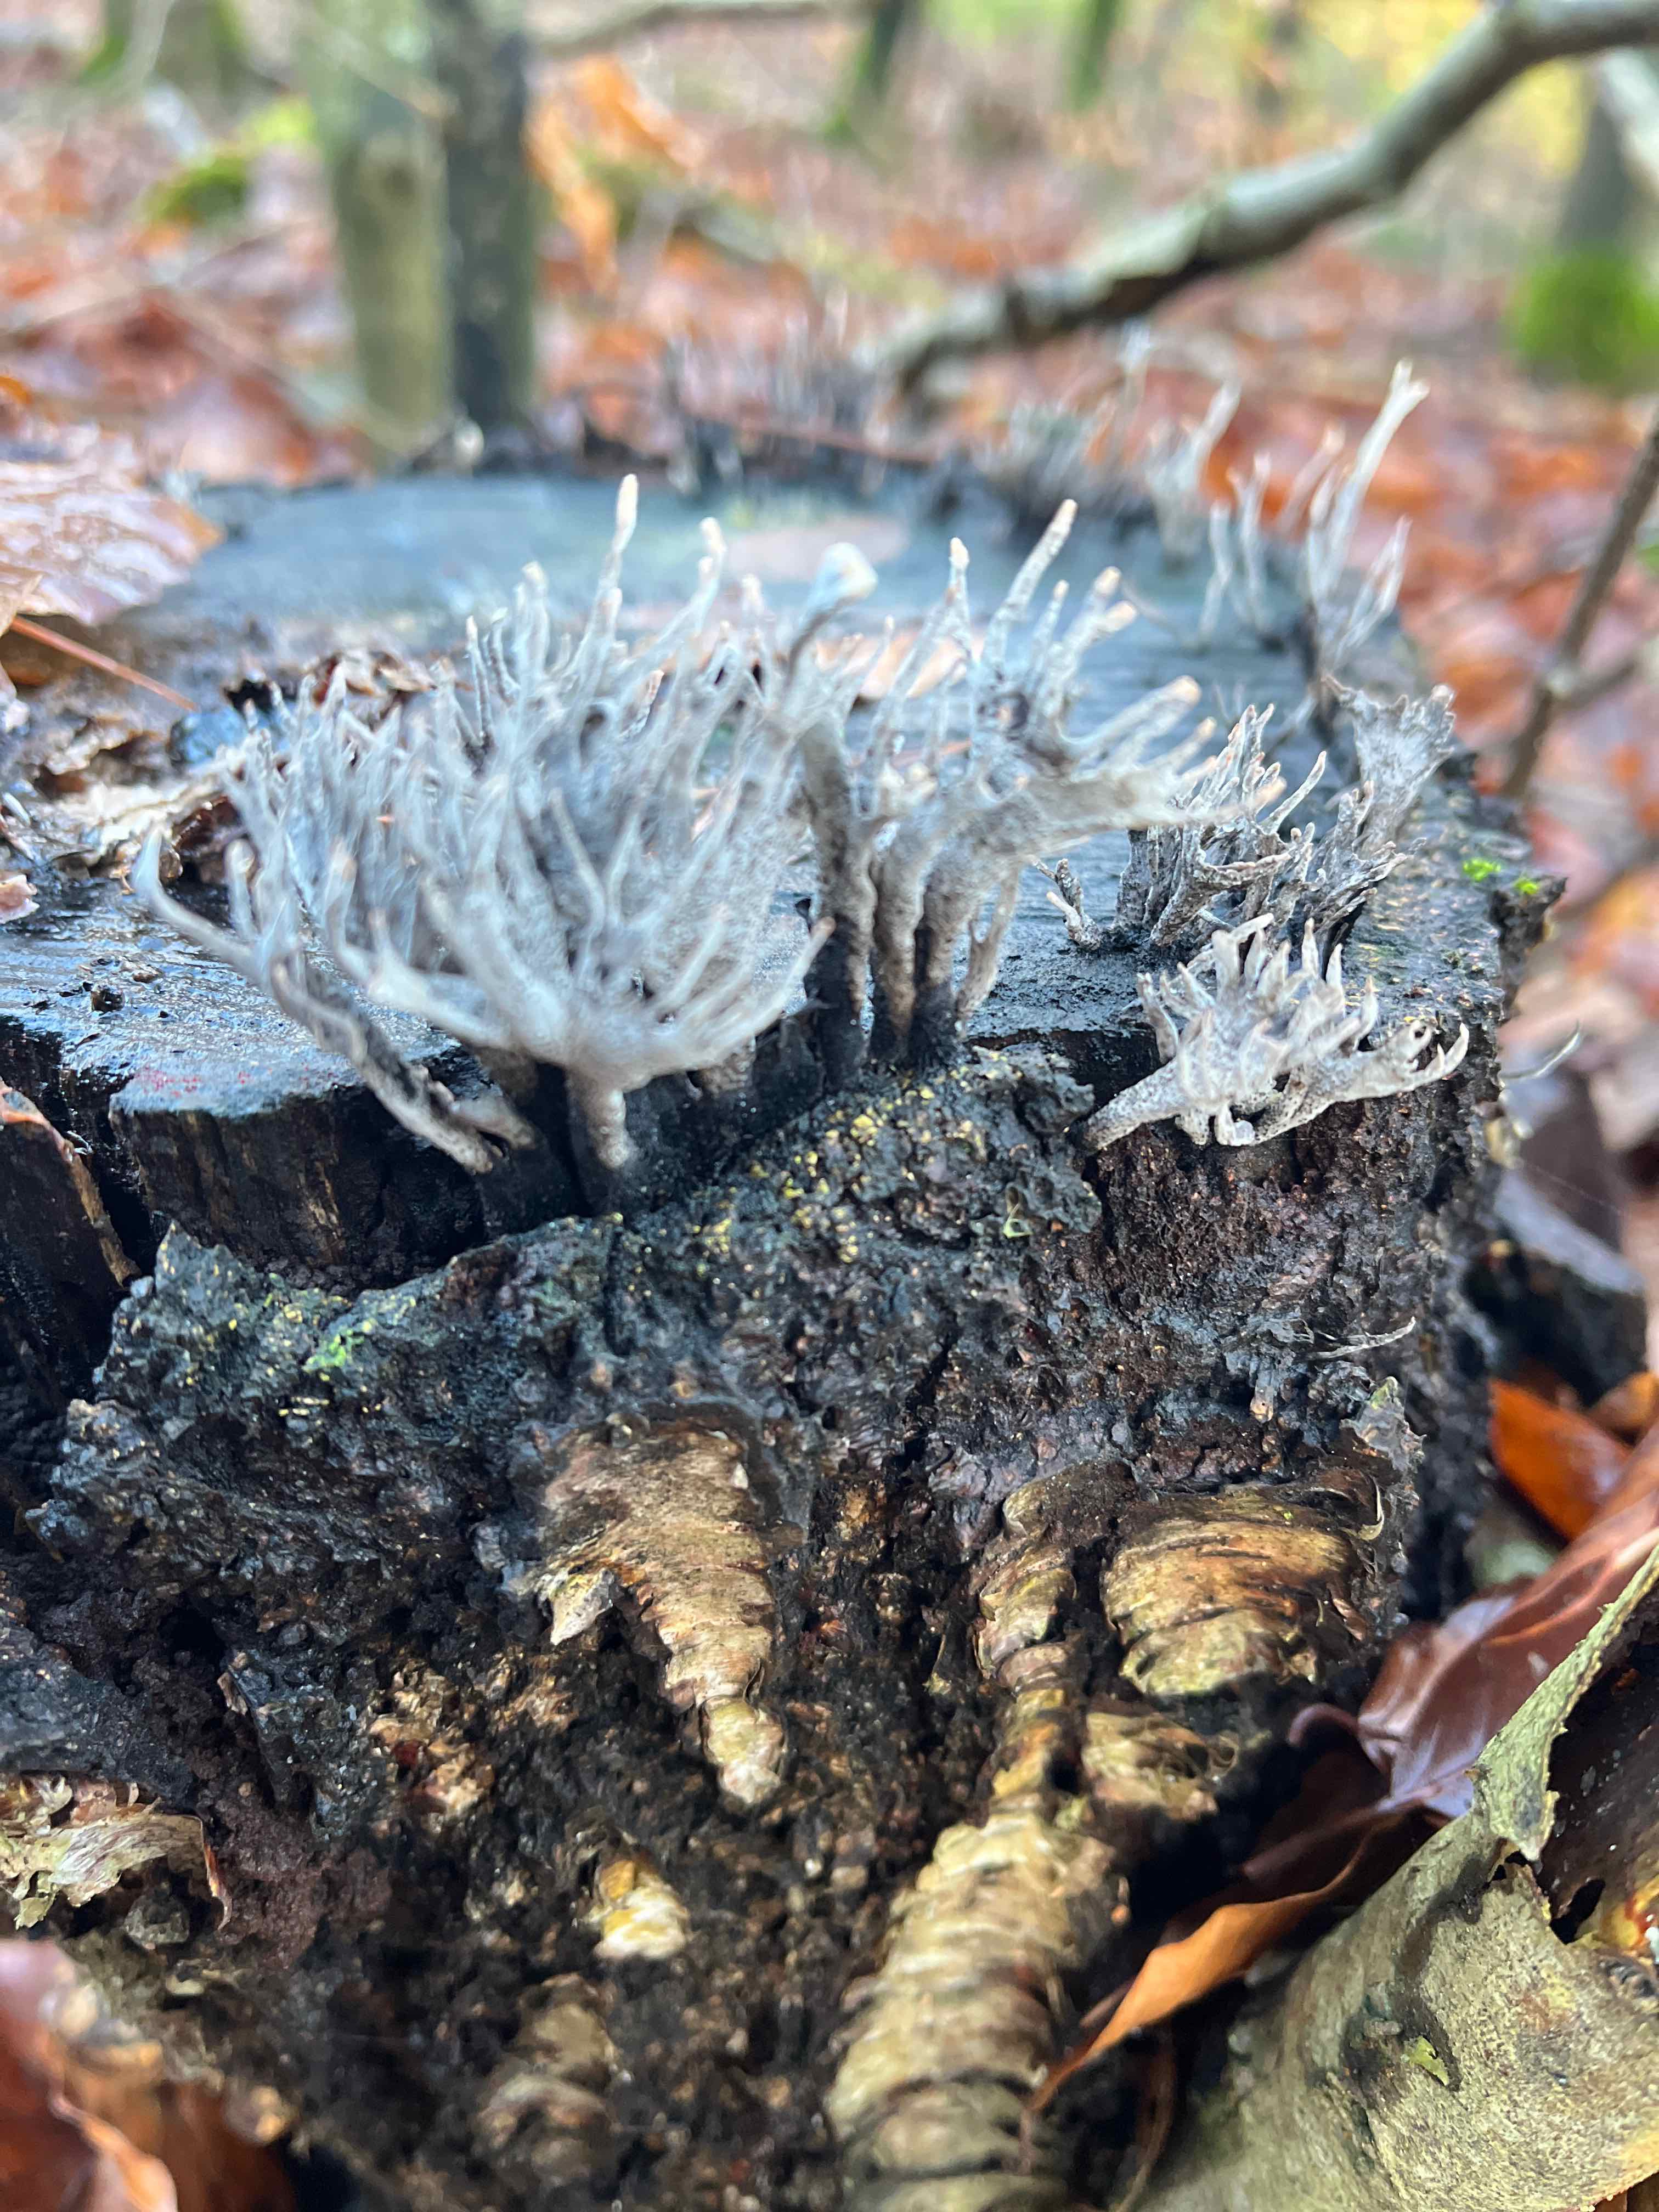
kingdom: Fungi
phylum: Ascomycota
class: Sordariomycetes
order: Xylariales
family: Xylariaceae
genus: Xylaria
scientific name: Xylaria hypoxylon
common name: grenet stødsvamp
